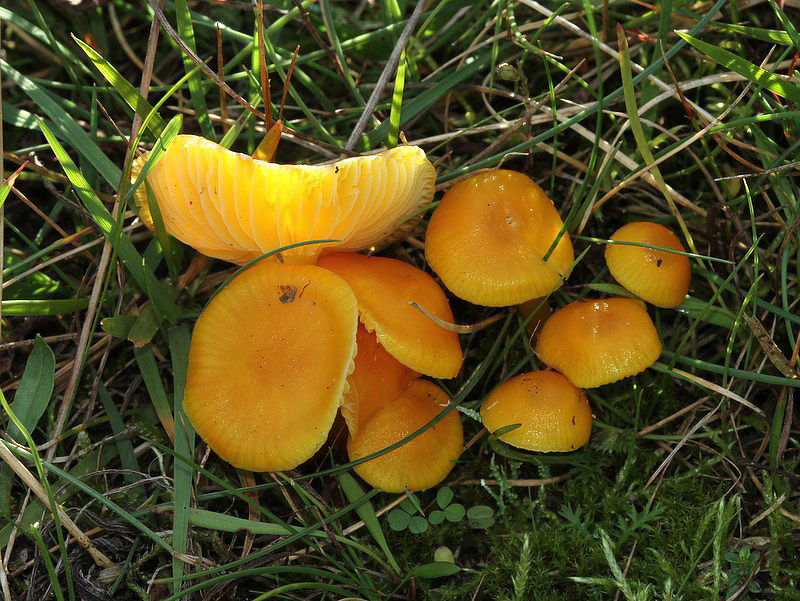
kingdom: Fungi
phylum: Basidiomycota
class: Agaricomycetes
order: Agaricales
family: Hygrophoraceae
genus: Hygrocybe
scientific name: Hygrocybe ceracea
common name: voksgul vokshat
